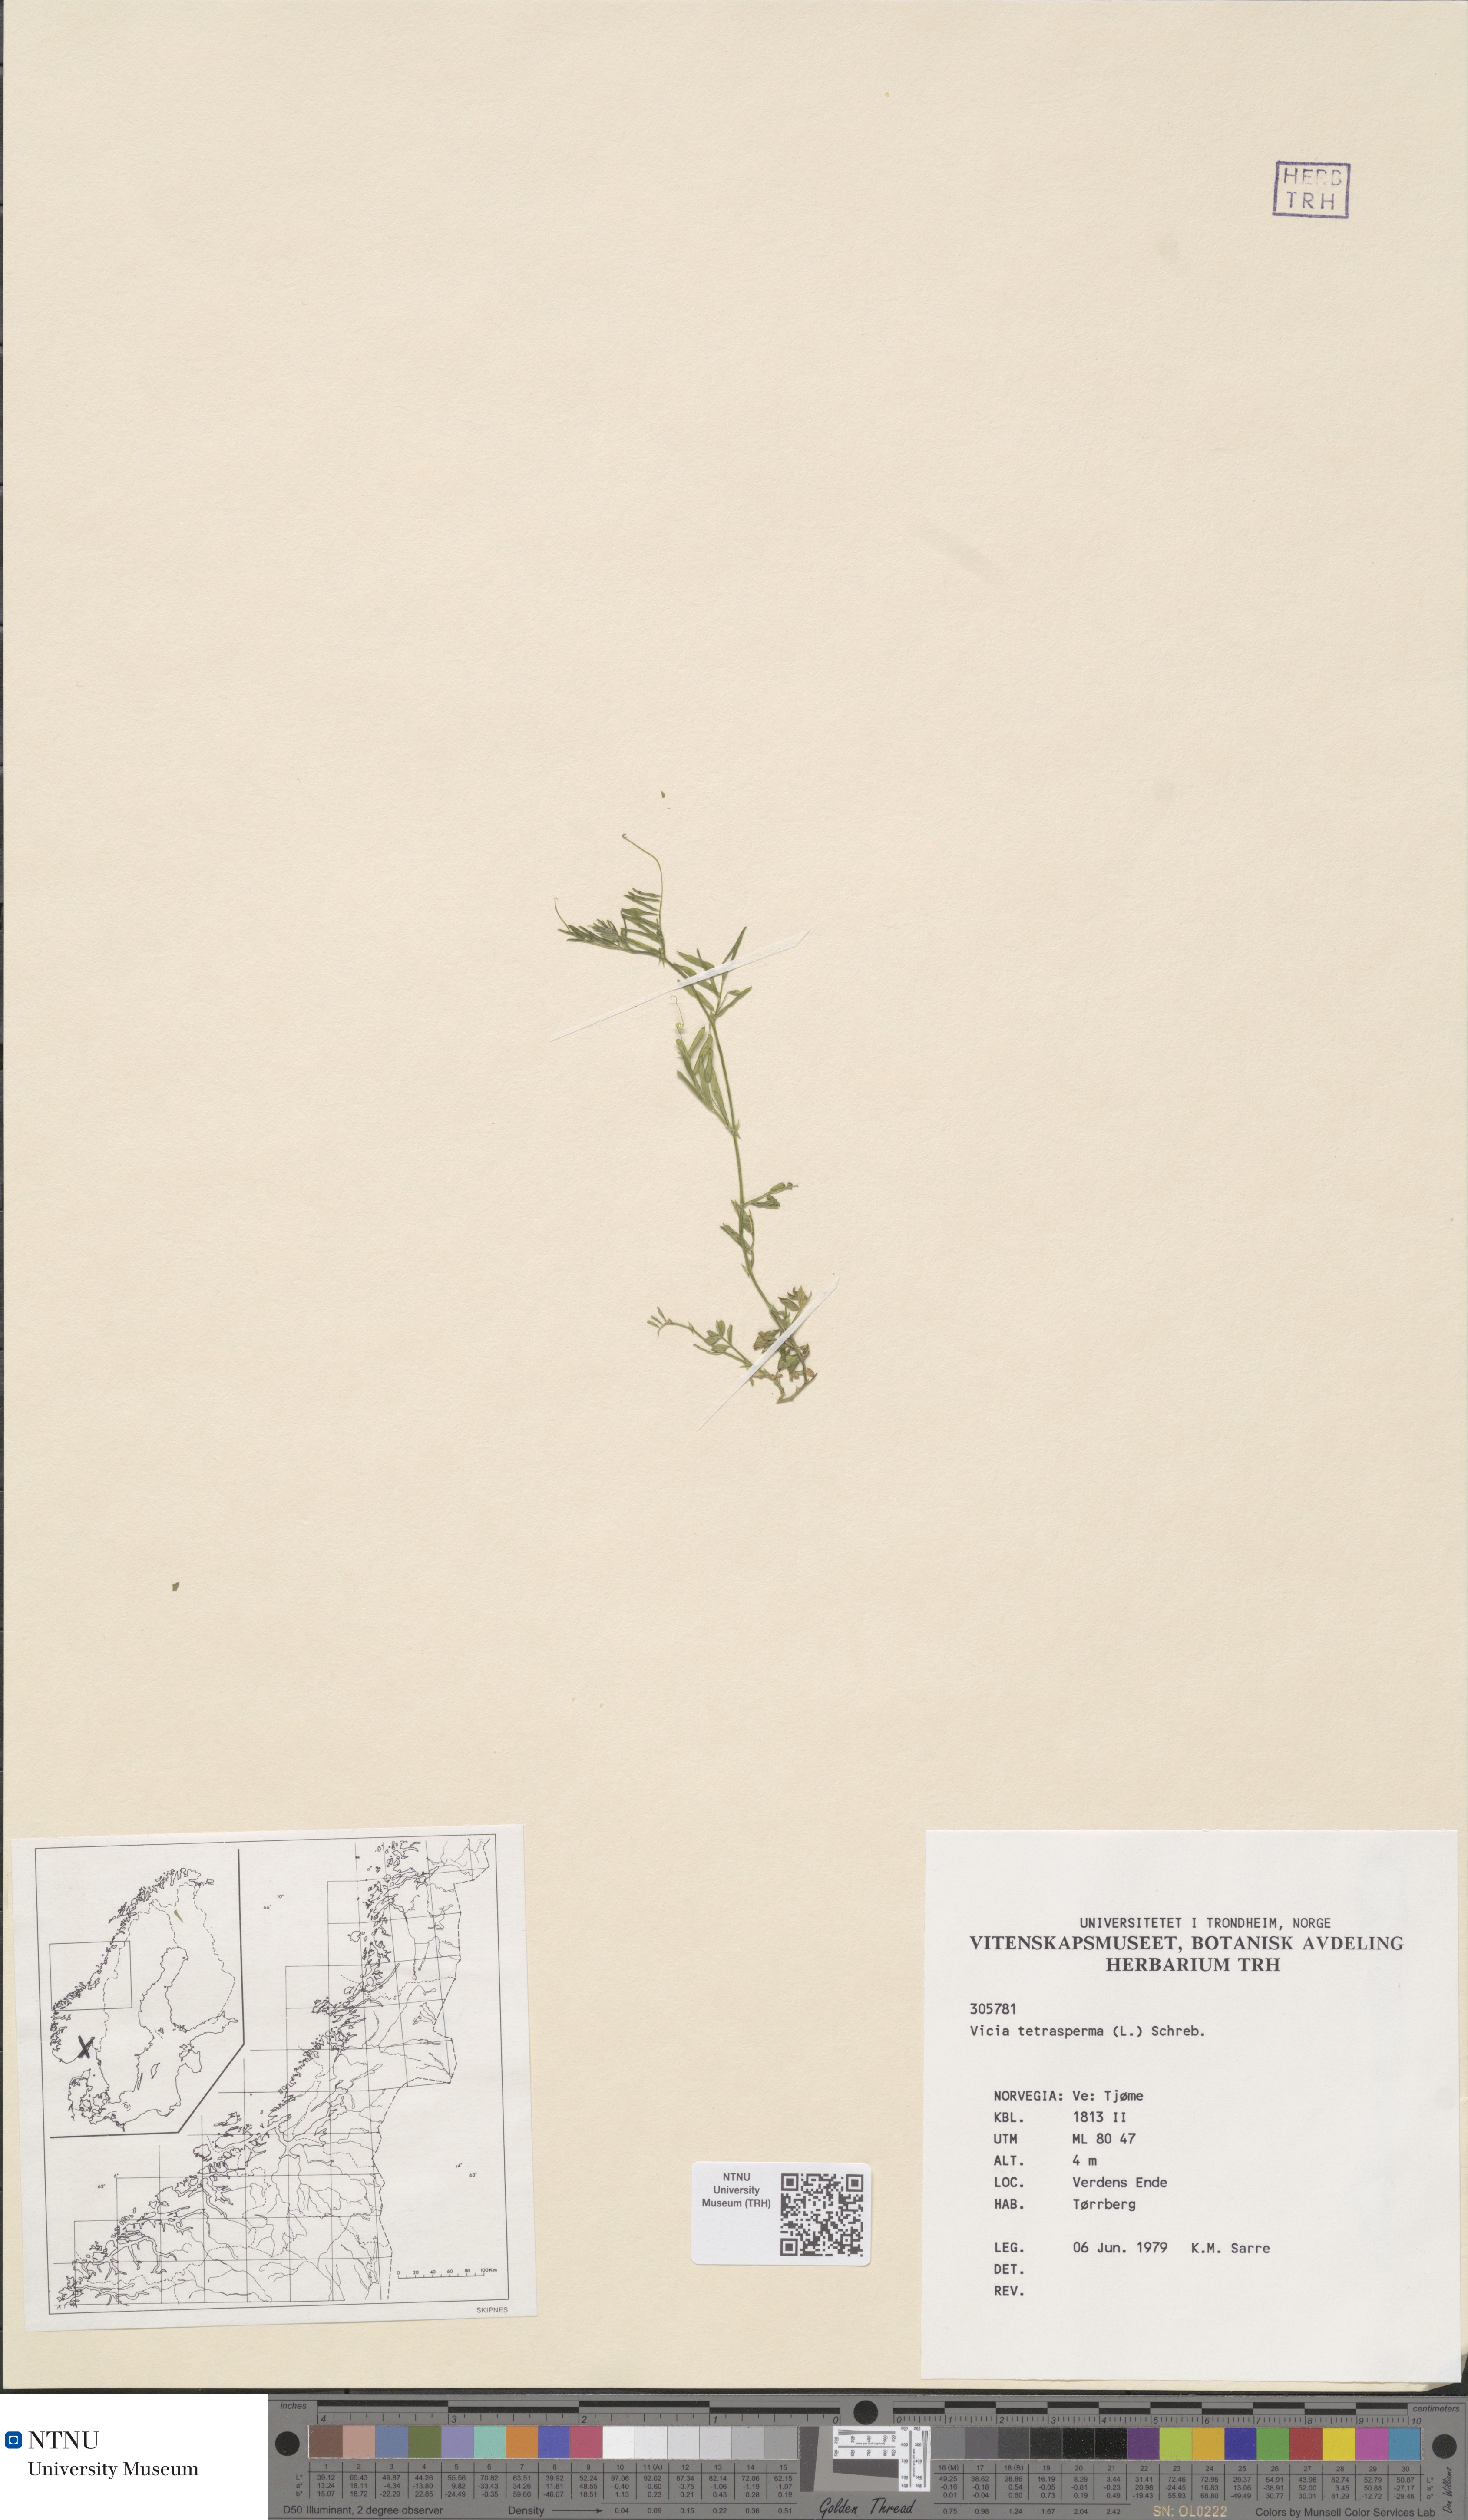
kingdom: Plantae
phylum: Tracheophyta
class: Magnoliopsida
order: Fabales
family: Fabaceae
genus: Vicia
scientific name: Vicia tetrasperma
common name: Smooth tare
